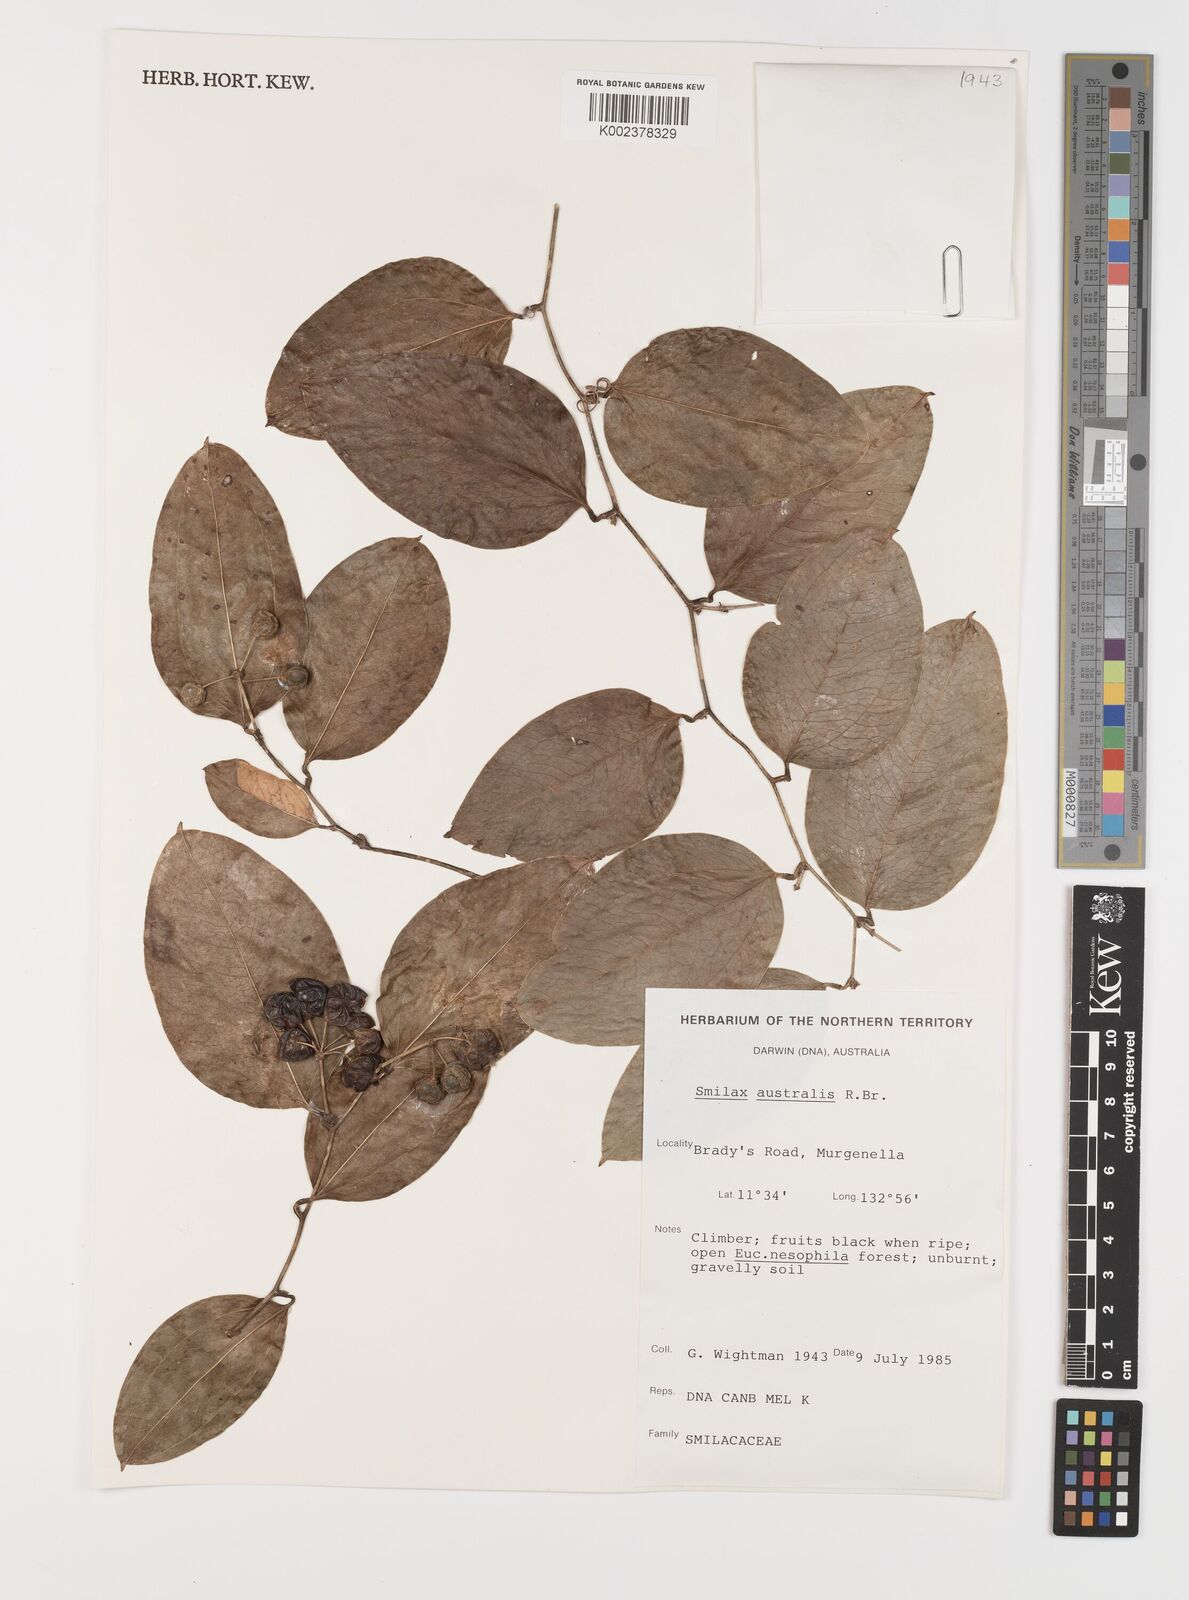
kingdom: Plantae
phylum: Tracheophyta
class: Liliopsida
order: Liliales
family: Smilacaceae
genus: Smilax
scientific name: Smilax australis
